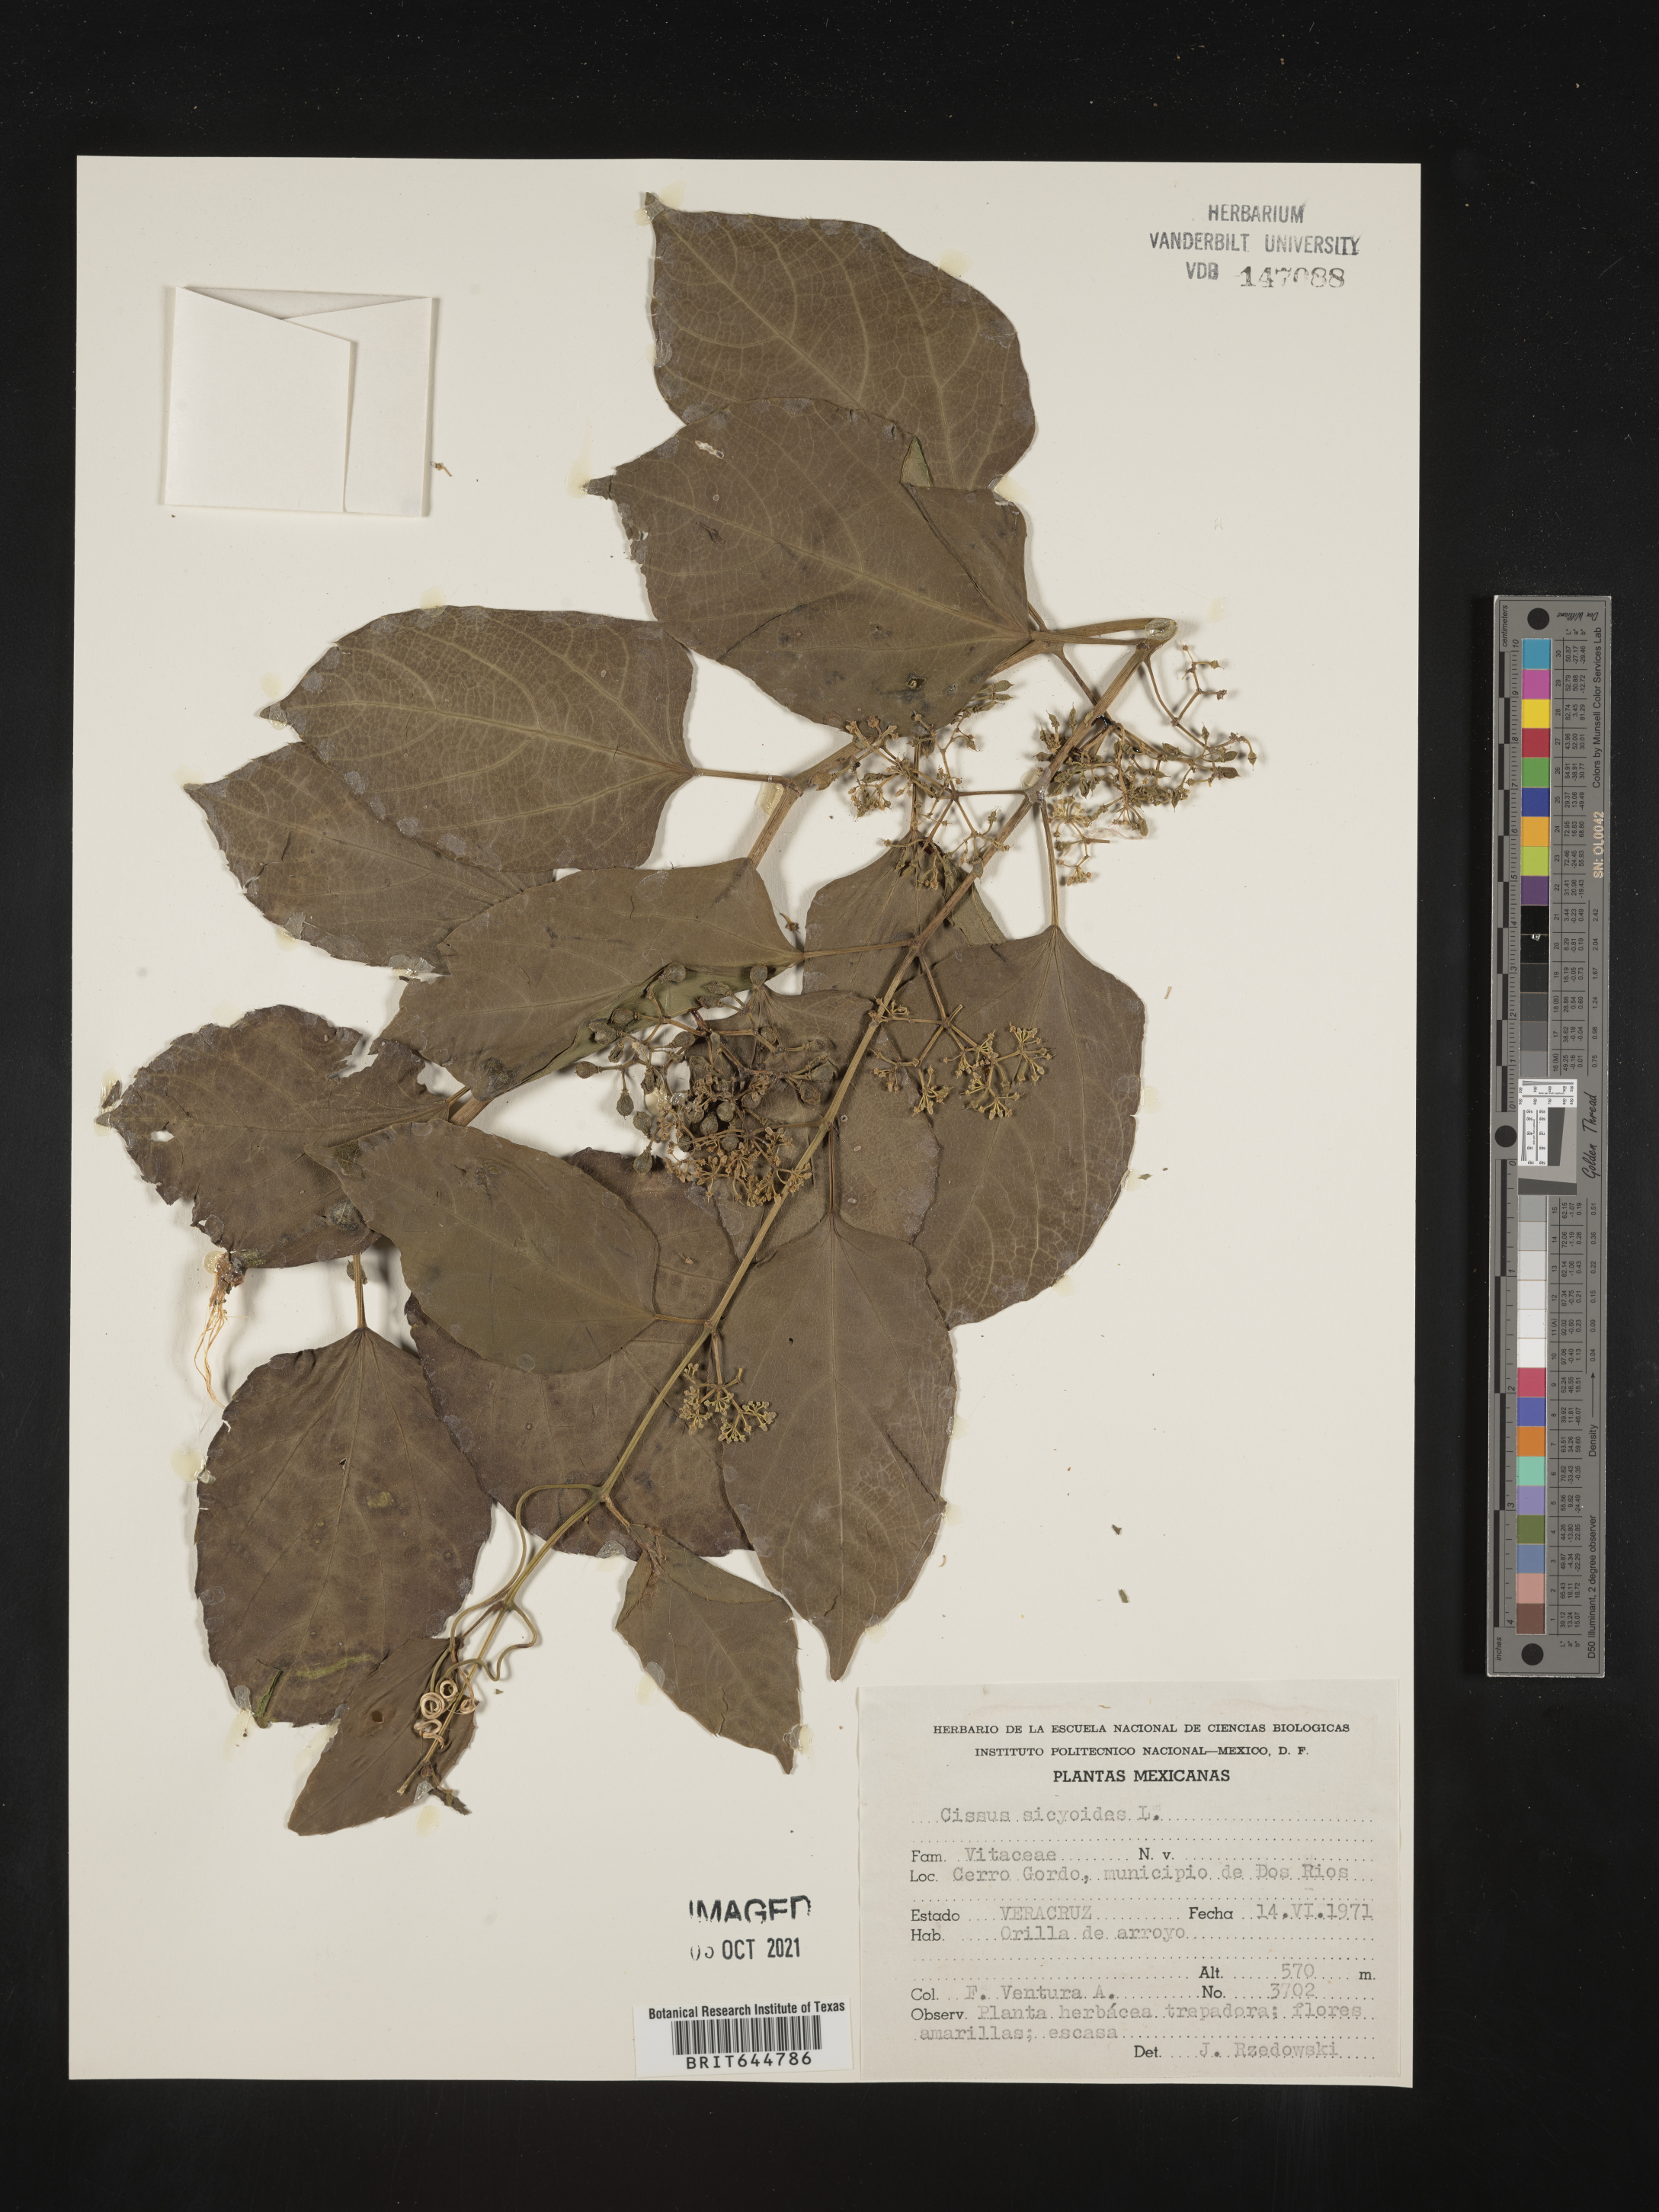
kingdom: Plantae
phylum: Tracheophyta
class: Magnoliopsida
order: Vitales
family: Vitaceae
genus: Cissus
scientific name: Cissus
